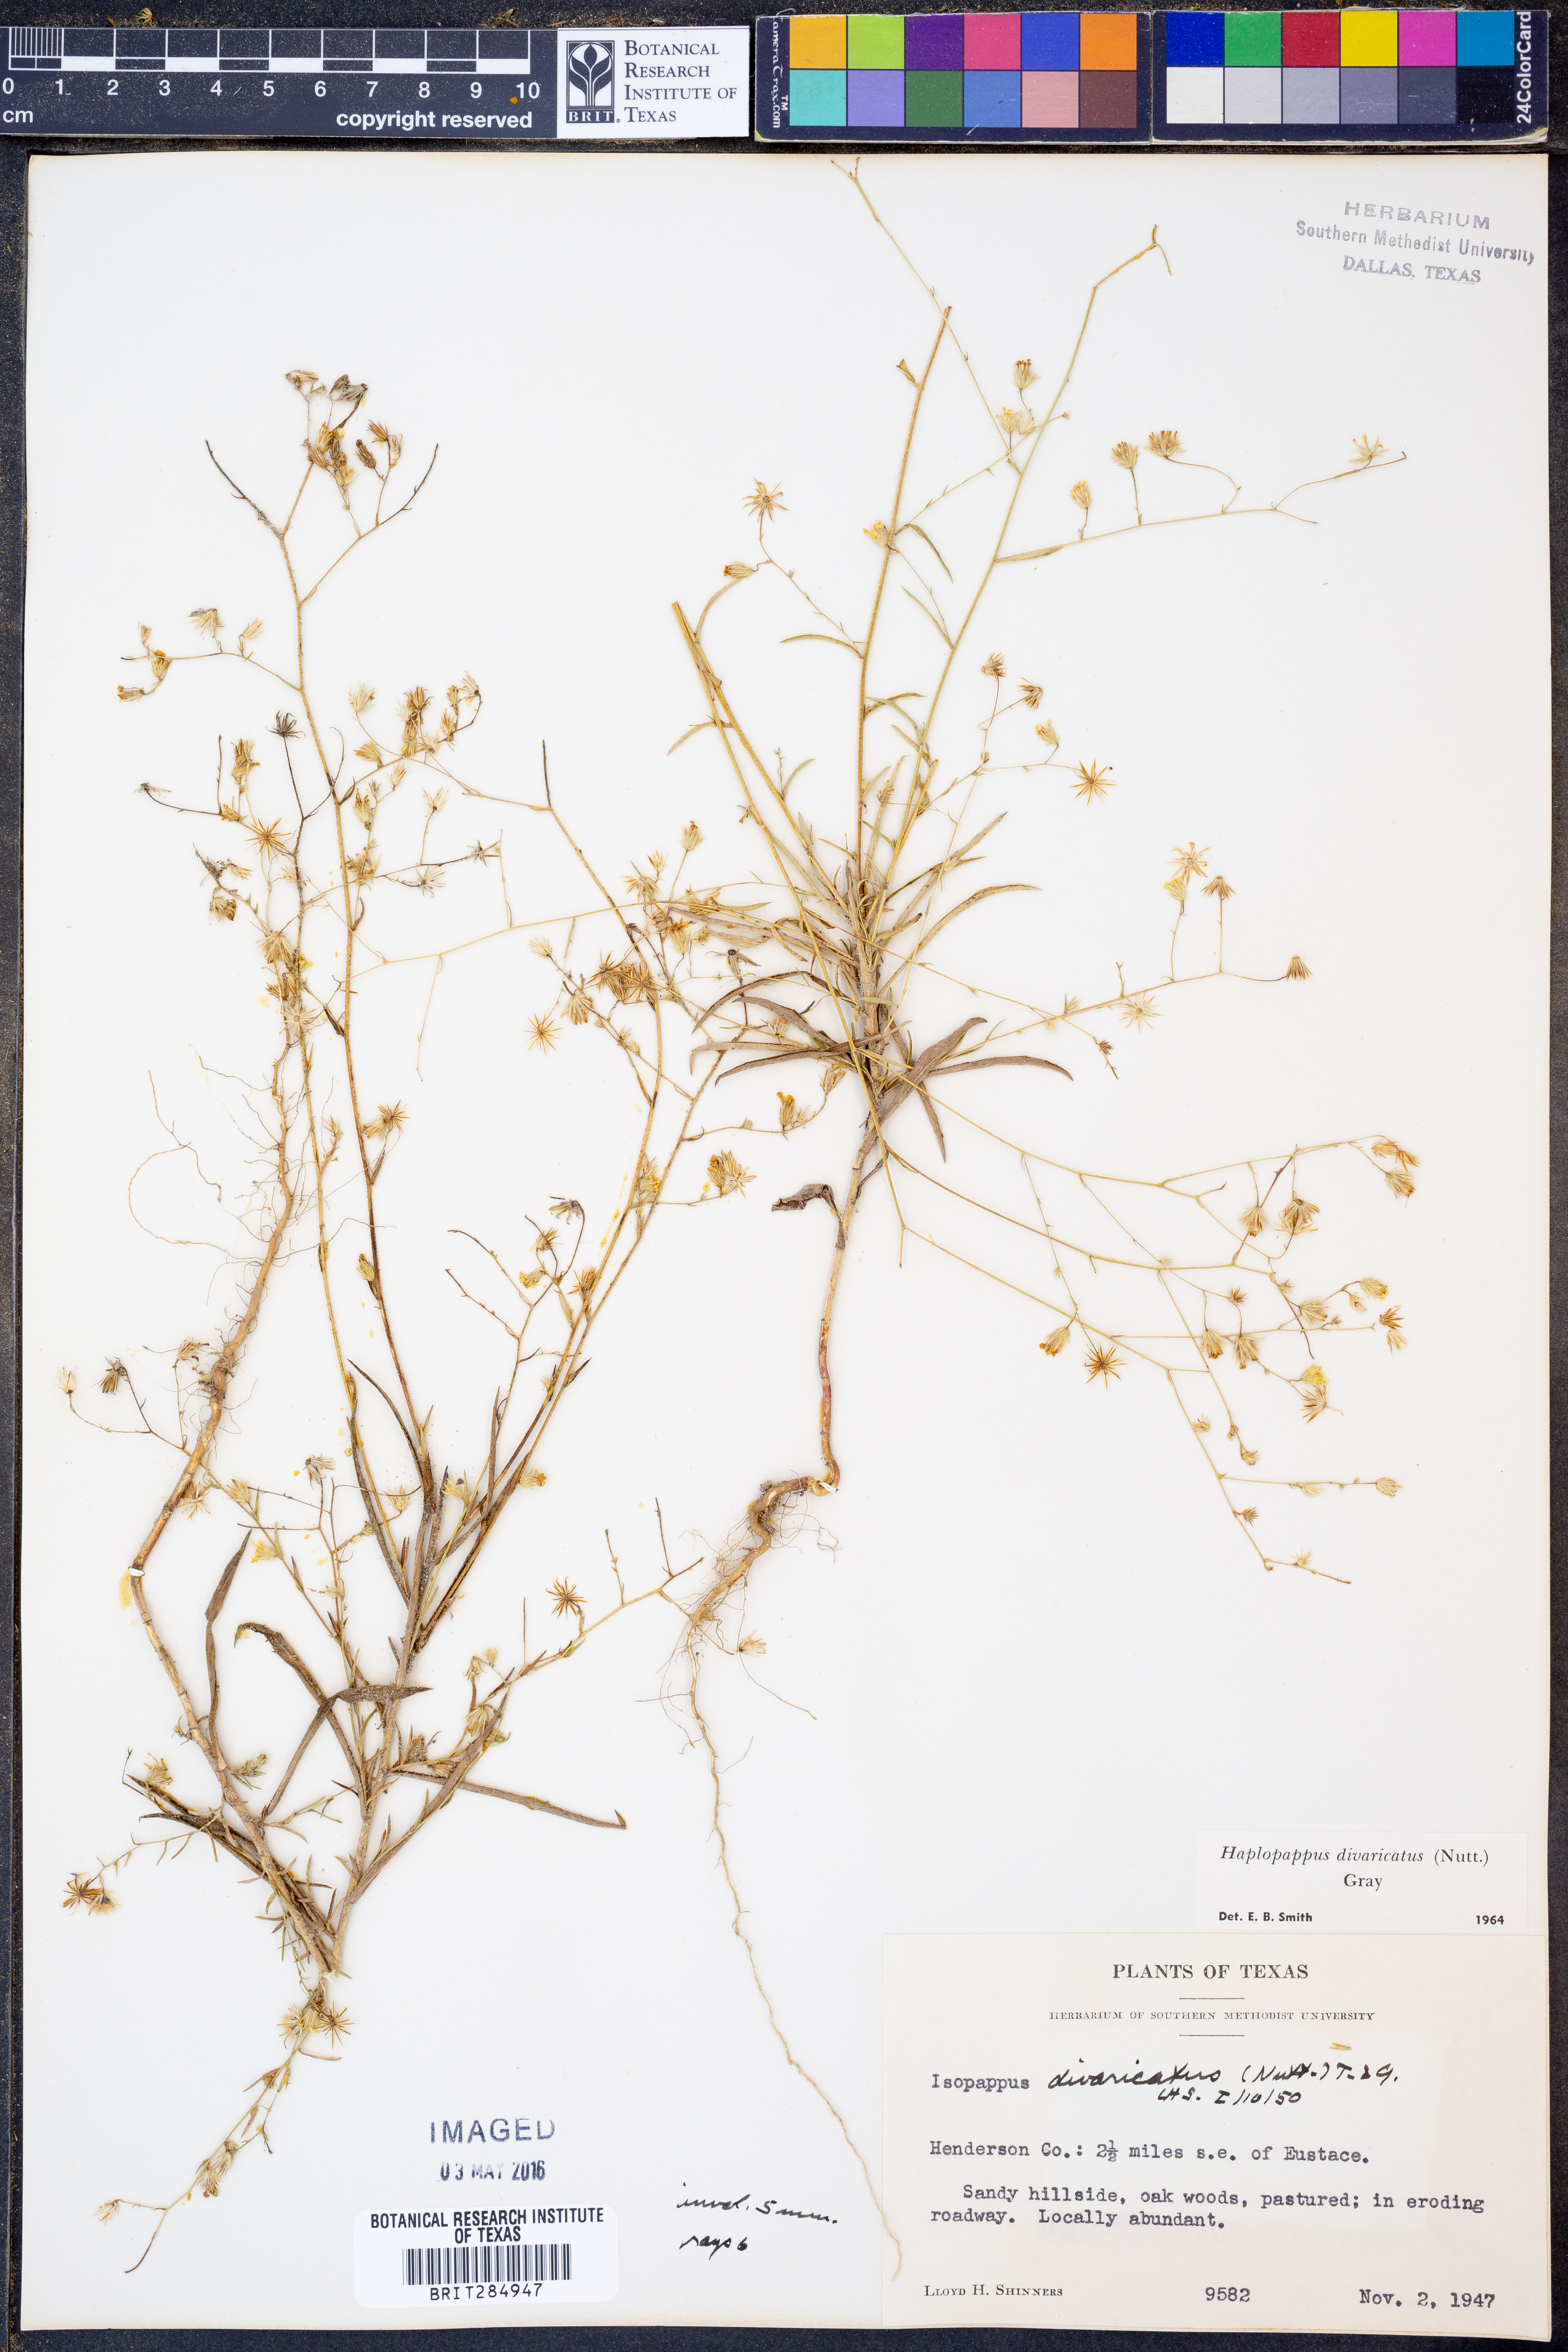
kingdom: Plantae
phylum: Tracheophyta
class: Magnoliopsida
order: Asterales
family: Asteraceae
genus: Croptilon
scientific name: Croptilon divaricatum
